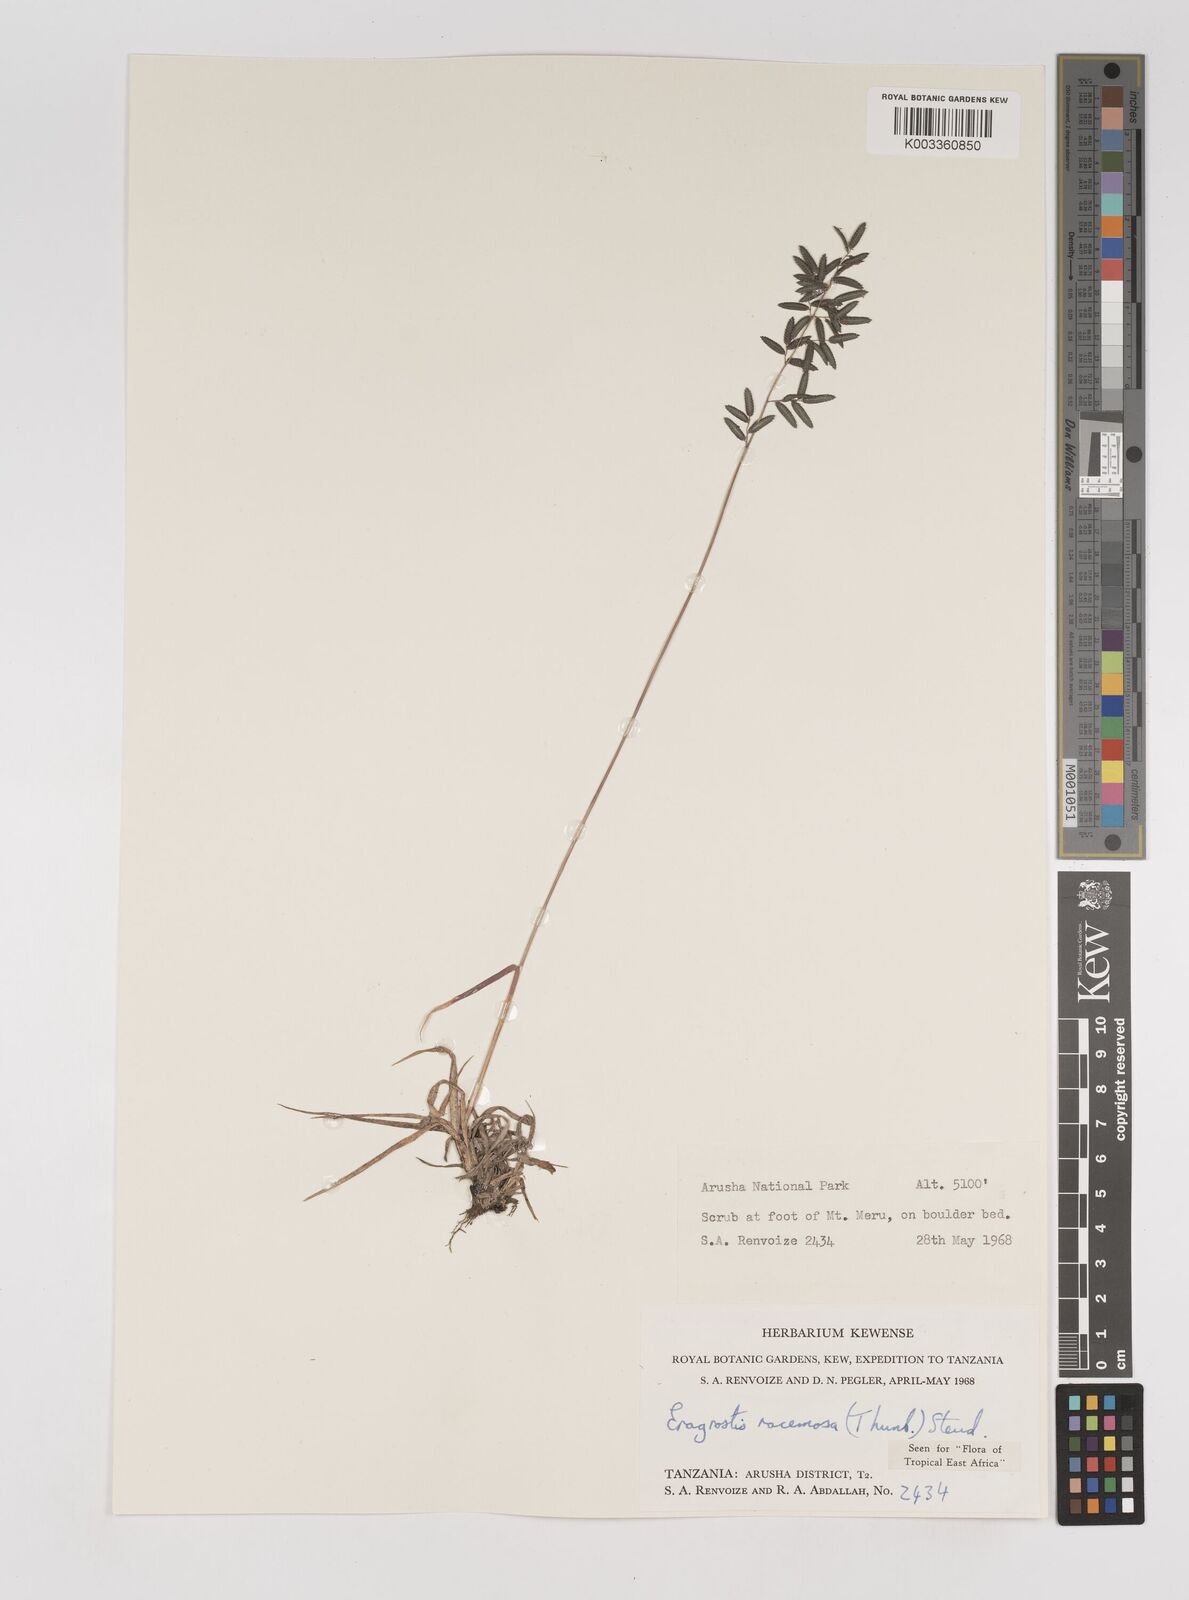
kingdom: Plantae
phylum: Tracheophyta
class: Liliopsida
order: Poales
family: Poaceae
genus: Eragrostis
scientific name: Eragrostis racemosa
